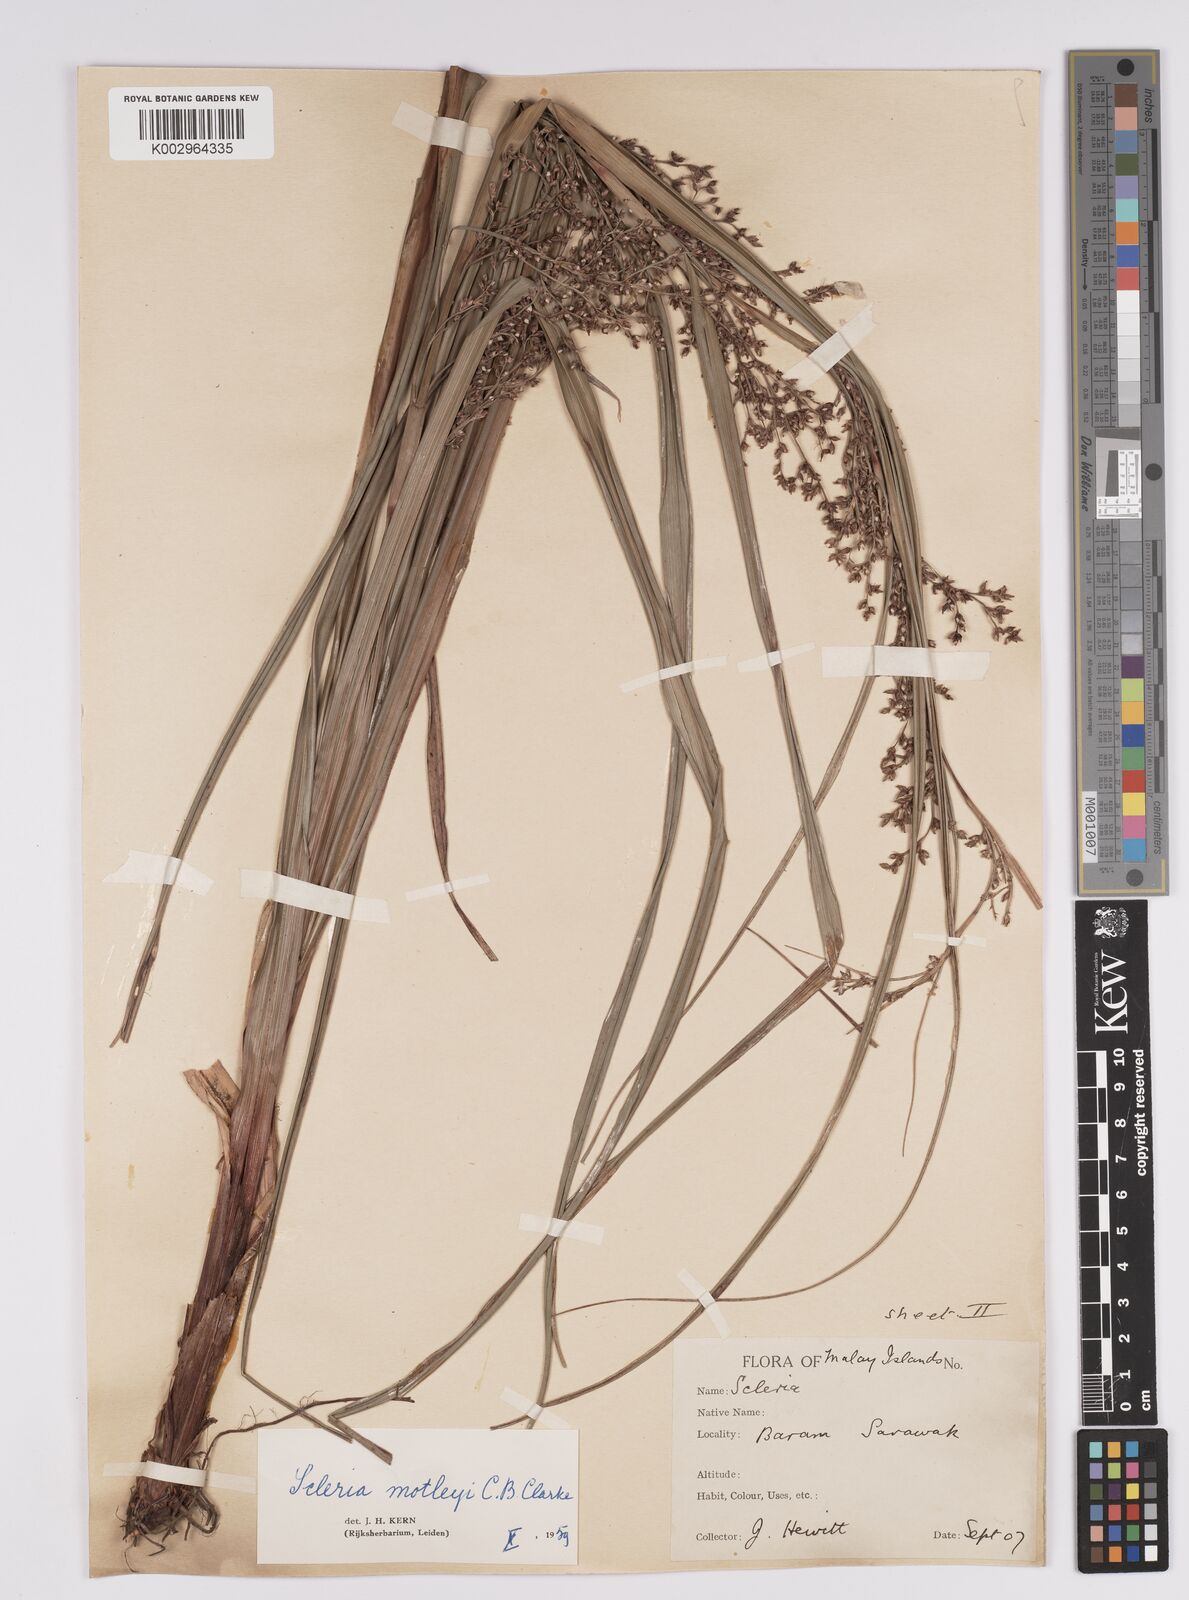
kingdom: Plantae
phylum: Tracheophyta
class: Liliopsida
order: Poales
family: Cyperaceae
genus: Scleria
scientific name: Scleria motleyi
